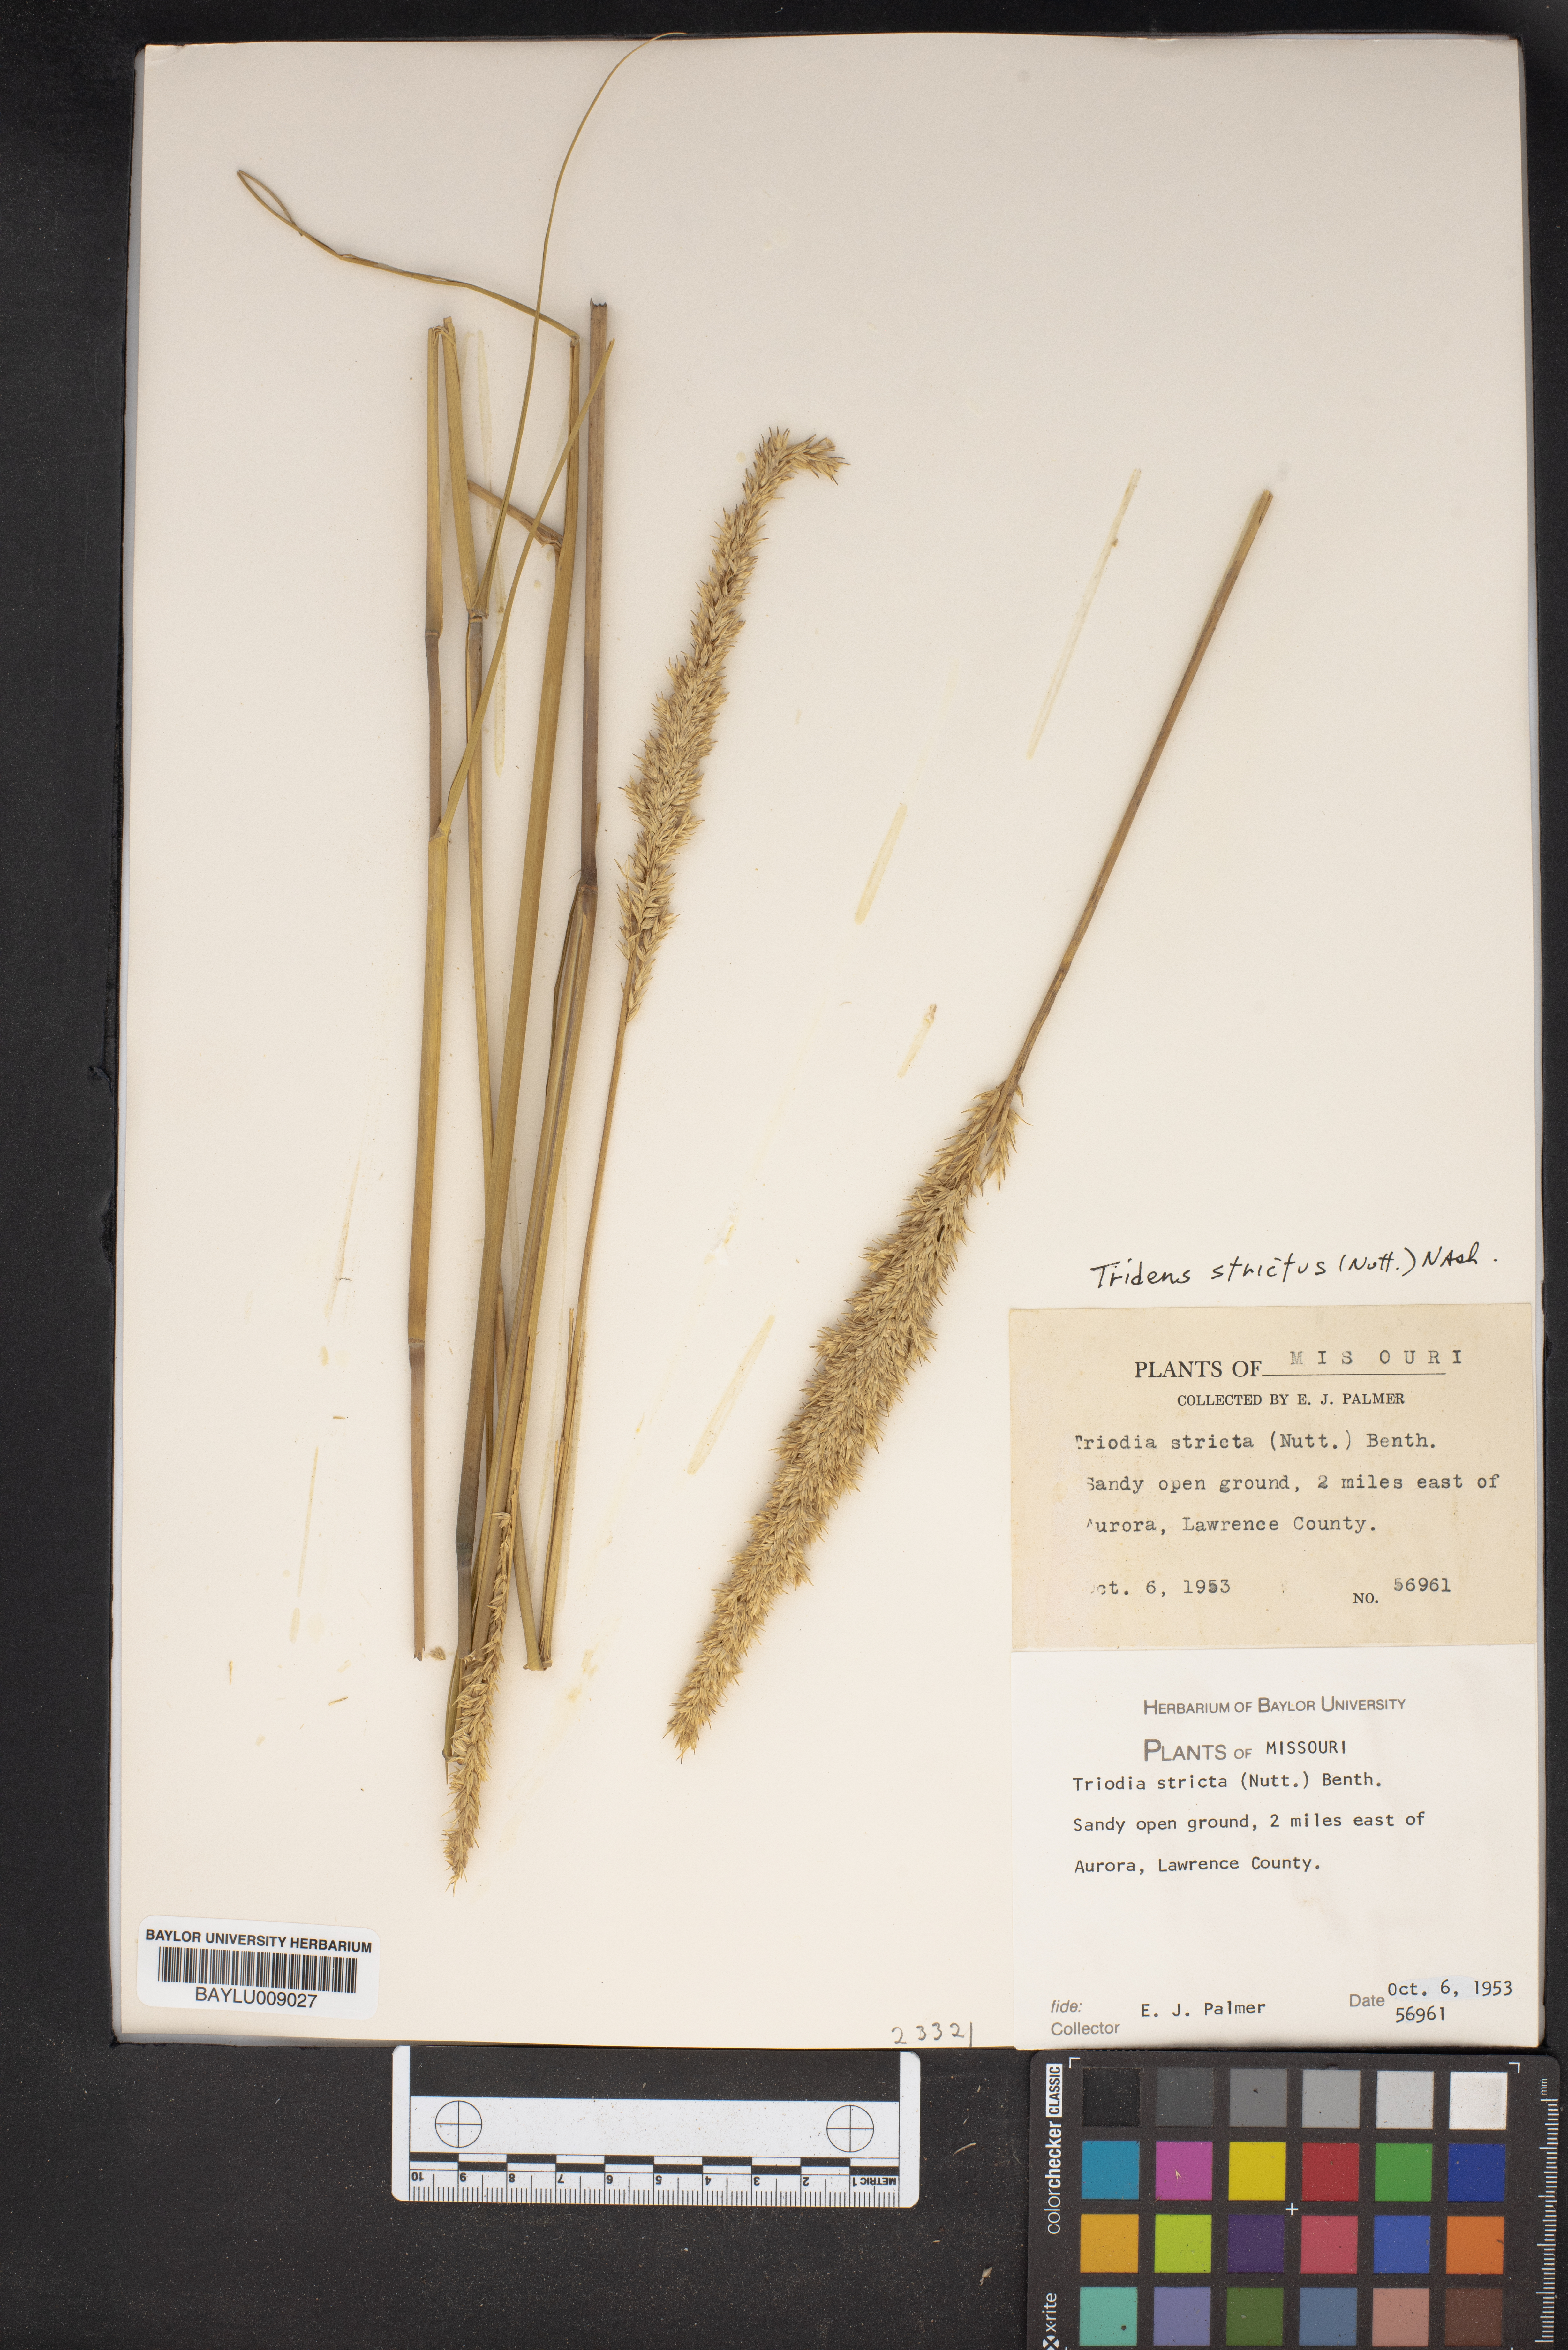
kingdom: Plantae
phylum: Tracheophyta
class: Liliopsida
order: Poales
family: Poaceae
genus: Tridens
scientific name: Tridens strictus
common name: Long-spike tridens
